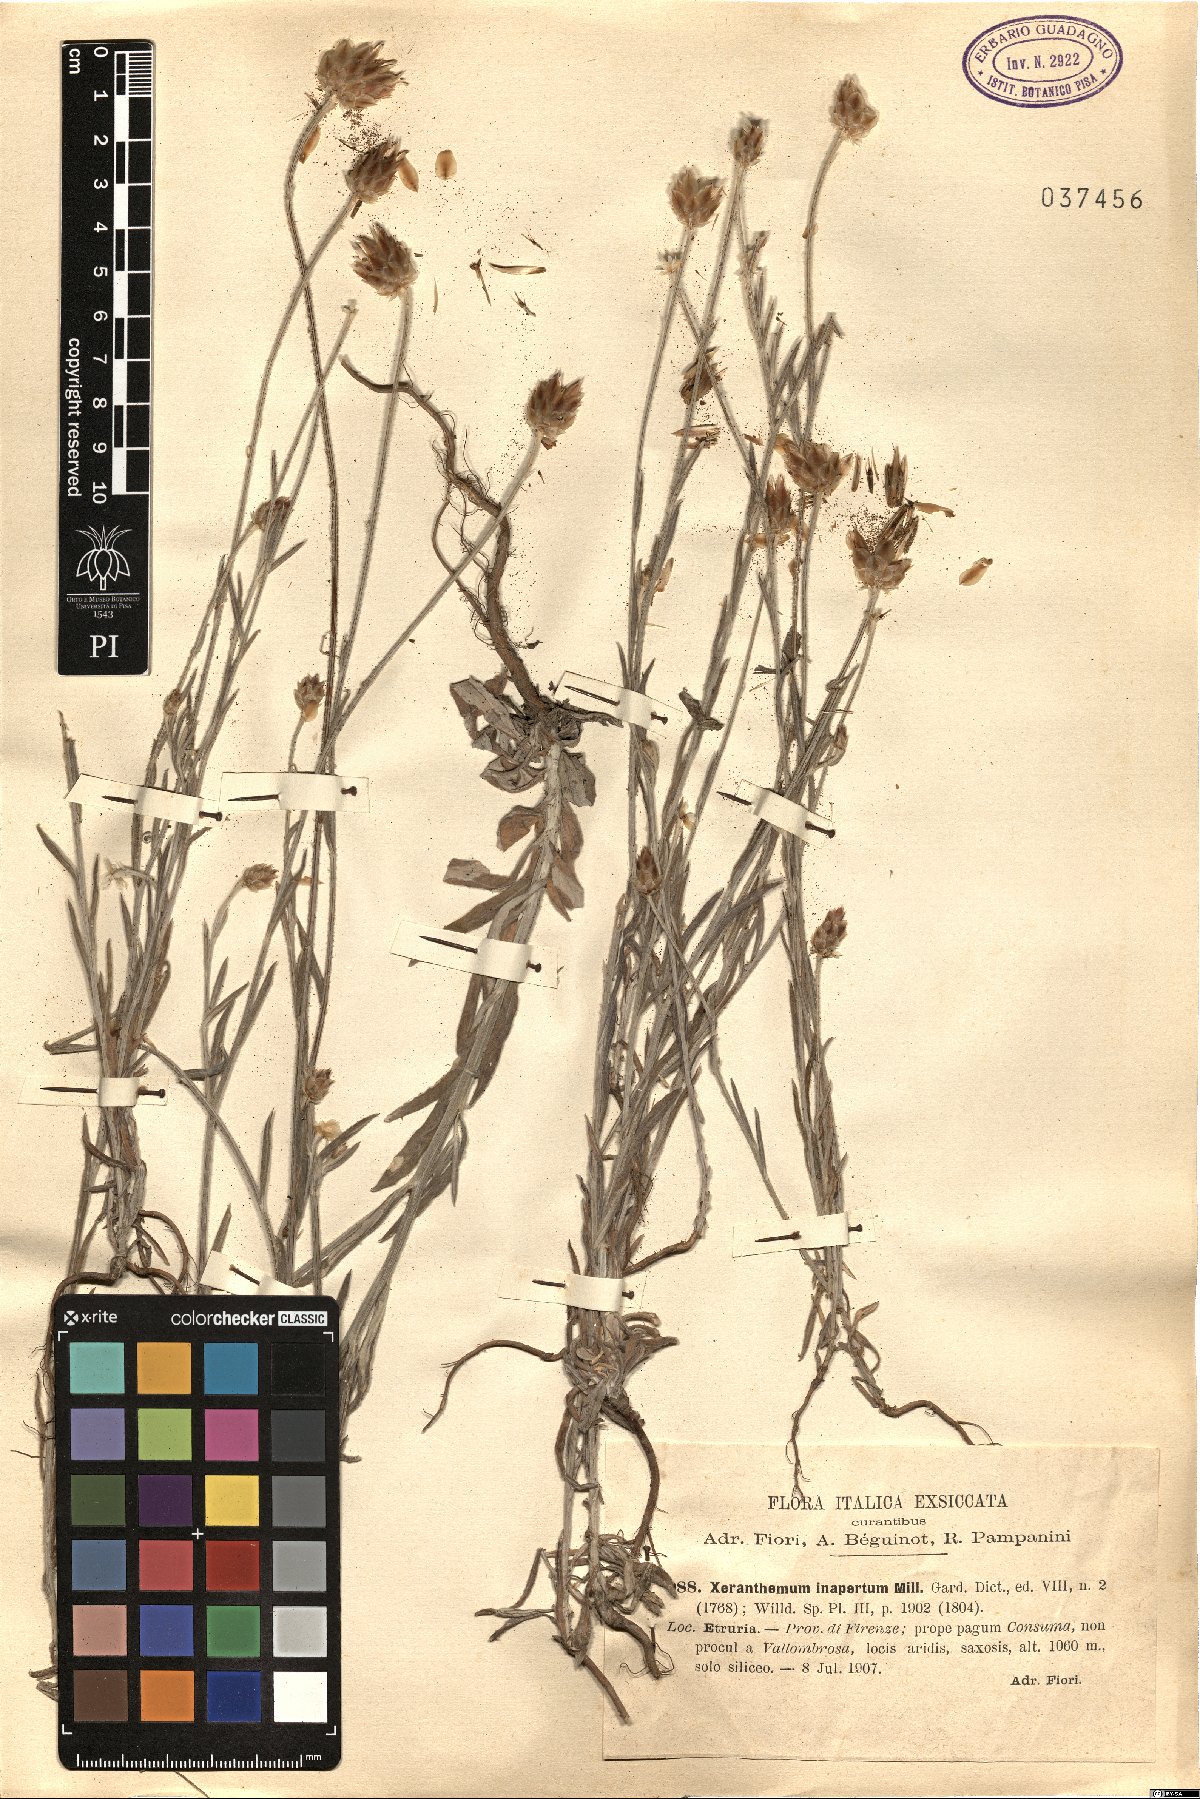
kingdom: Plantae
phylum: Tracheophyta
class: Magnoliopsida
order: Asterales
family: Asteraceae
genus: Xeranthemum
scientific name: Xeranthemum inapertum
